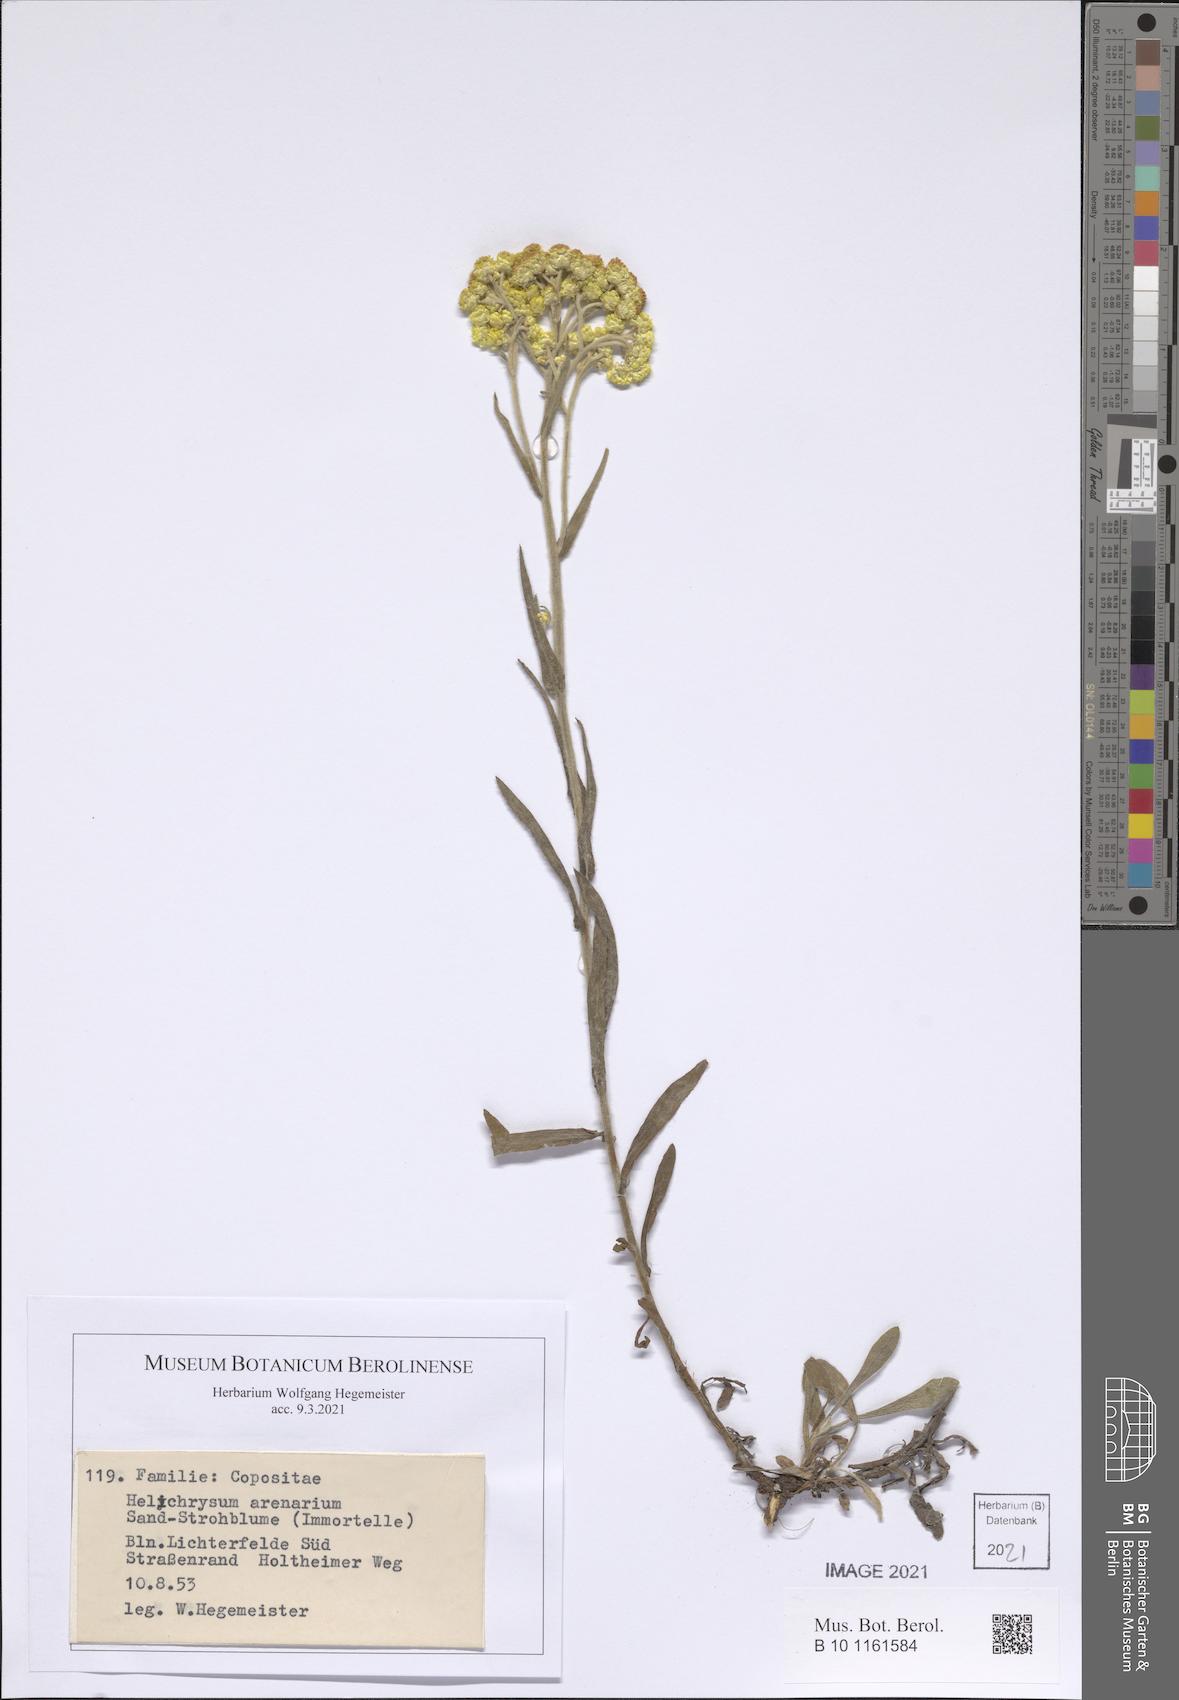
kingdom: Plantae
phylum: Tracheophyta
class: Magnoliopsida
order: Asterales
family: Asteraceae
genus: Helichrysum
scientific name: Helichrysum arenarium
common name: Strawflower
